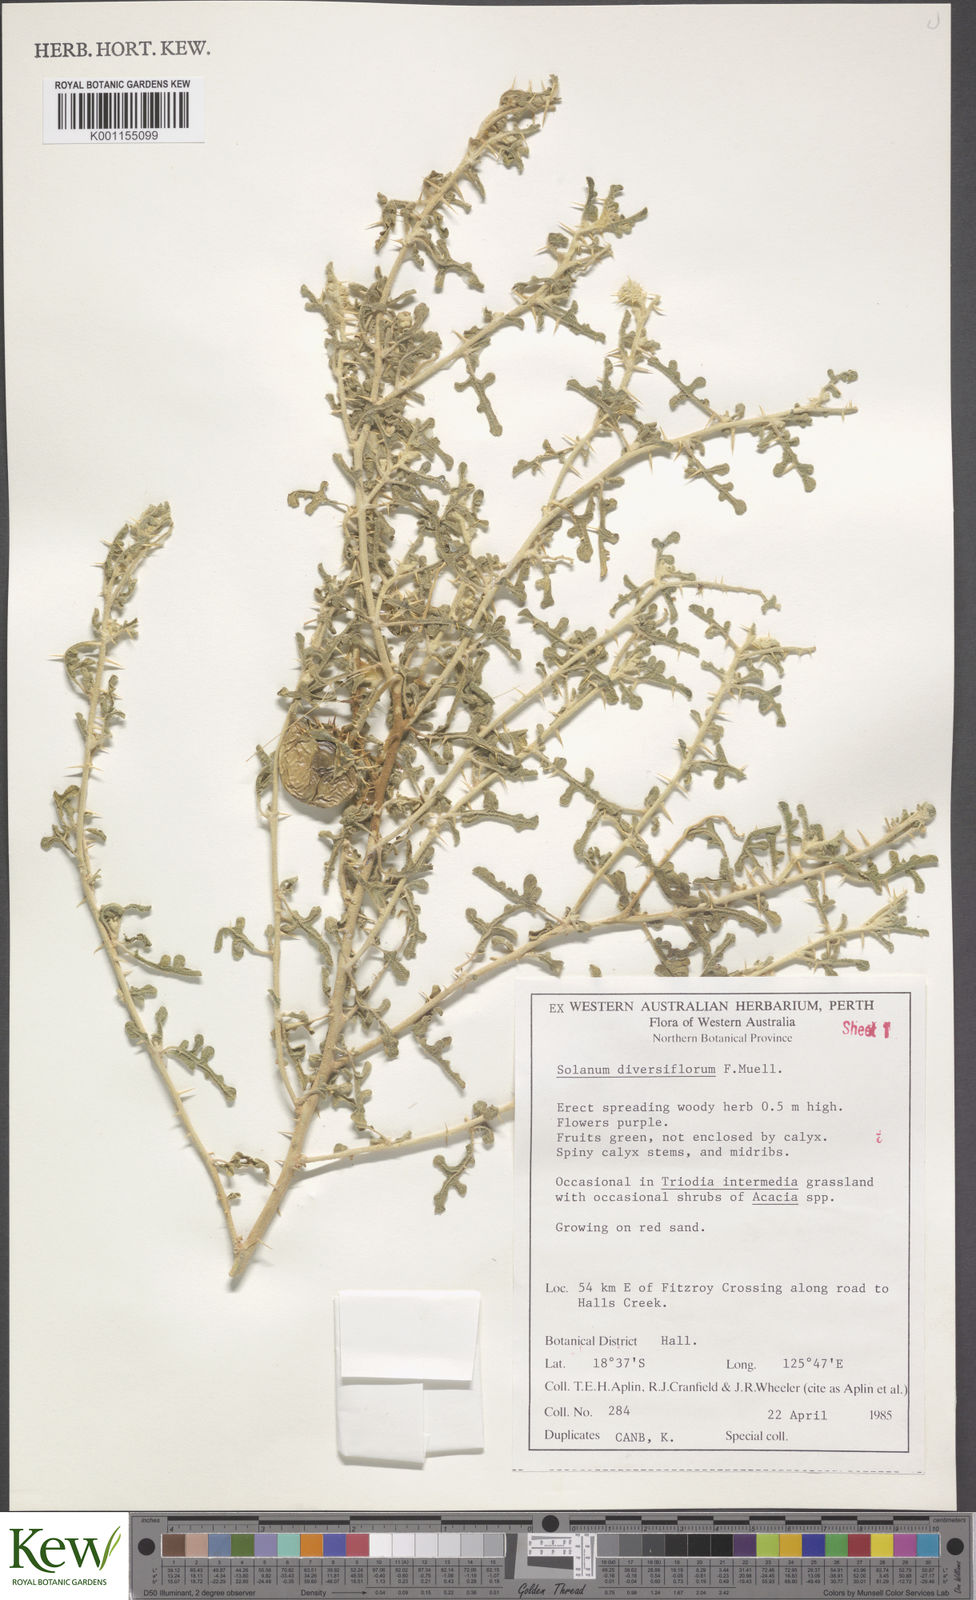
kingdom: Plantae
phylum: Tracheophyta
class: Magnoliopsida
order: Solanales
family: Solanaceae
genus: Solanum
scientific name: Solanum diversiflorum
